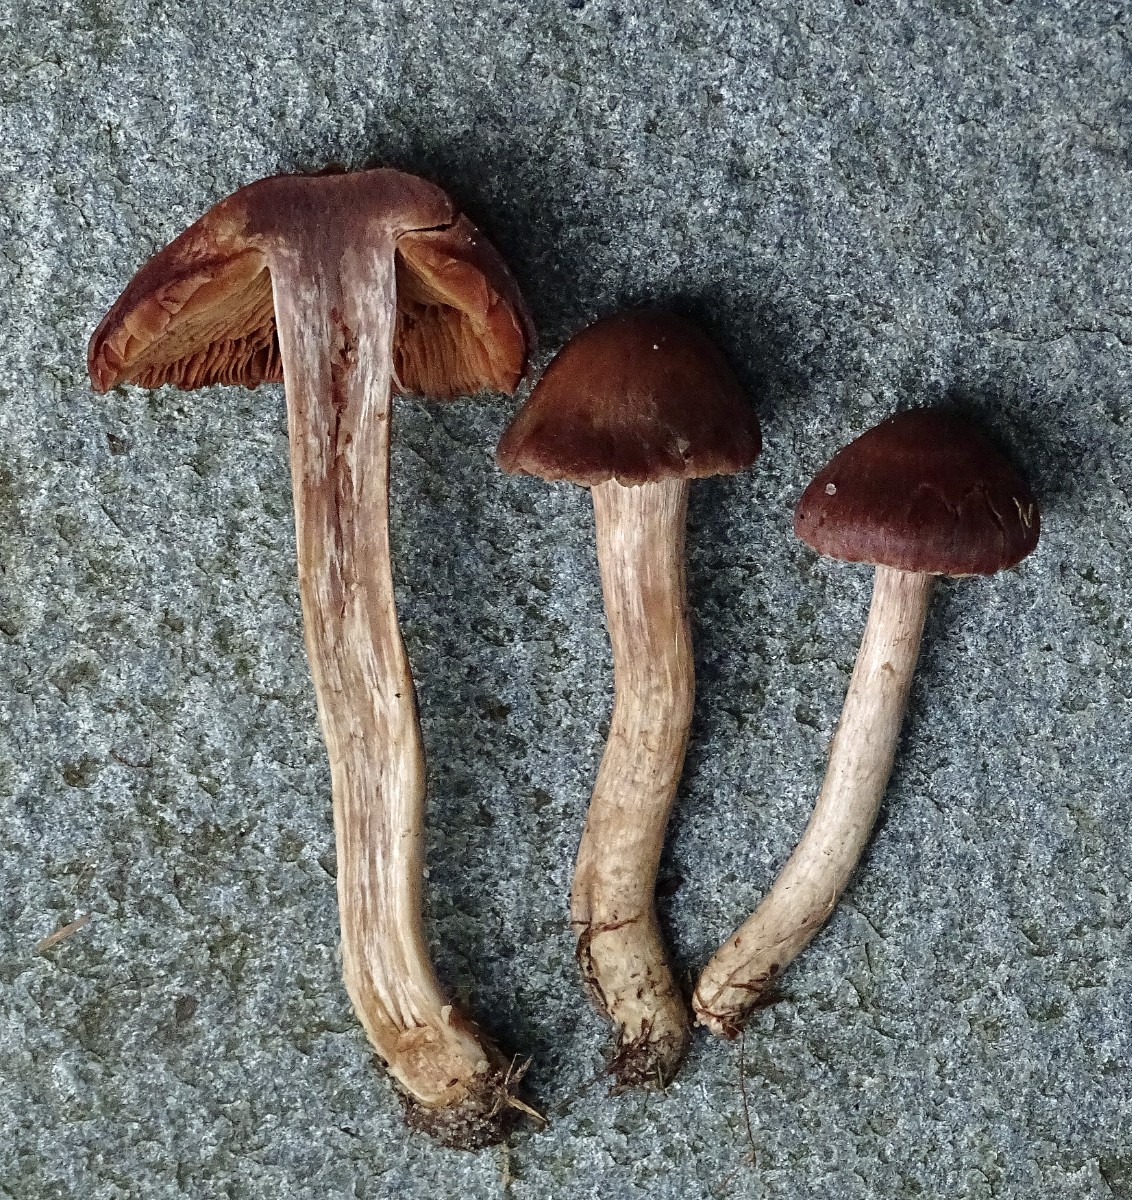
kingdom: Fungi
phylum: Basidiomycota
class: Agaricomycetes
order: Agaricales
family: Cortinariaceae
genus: Cortinarius
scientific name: Cortinarius dolabratus
